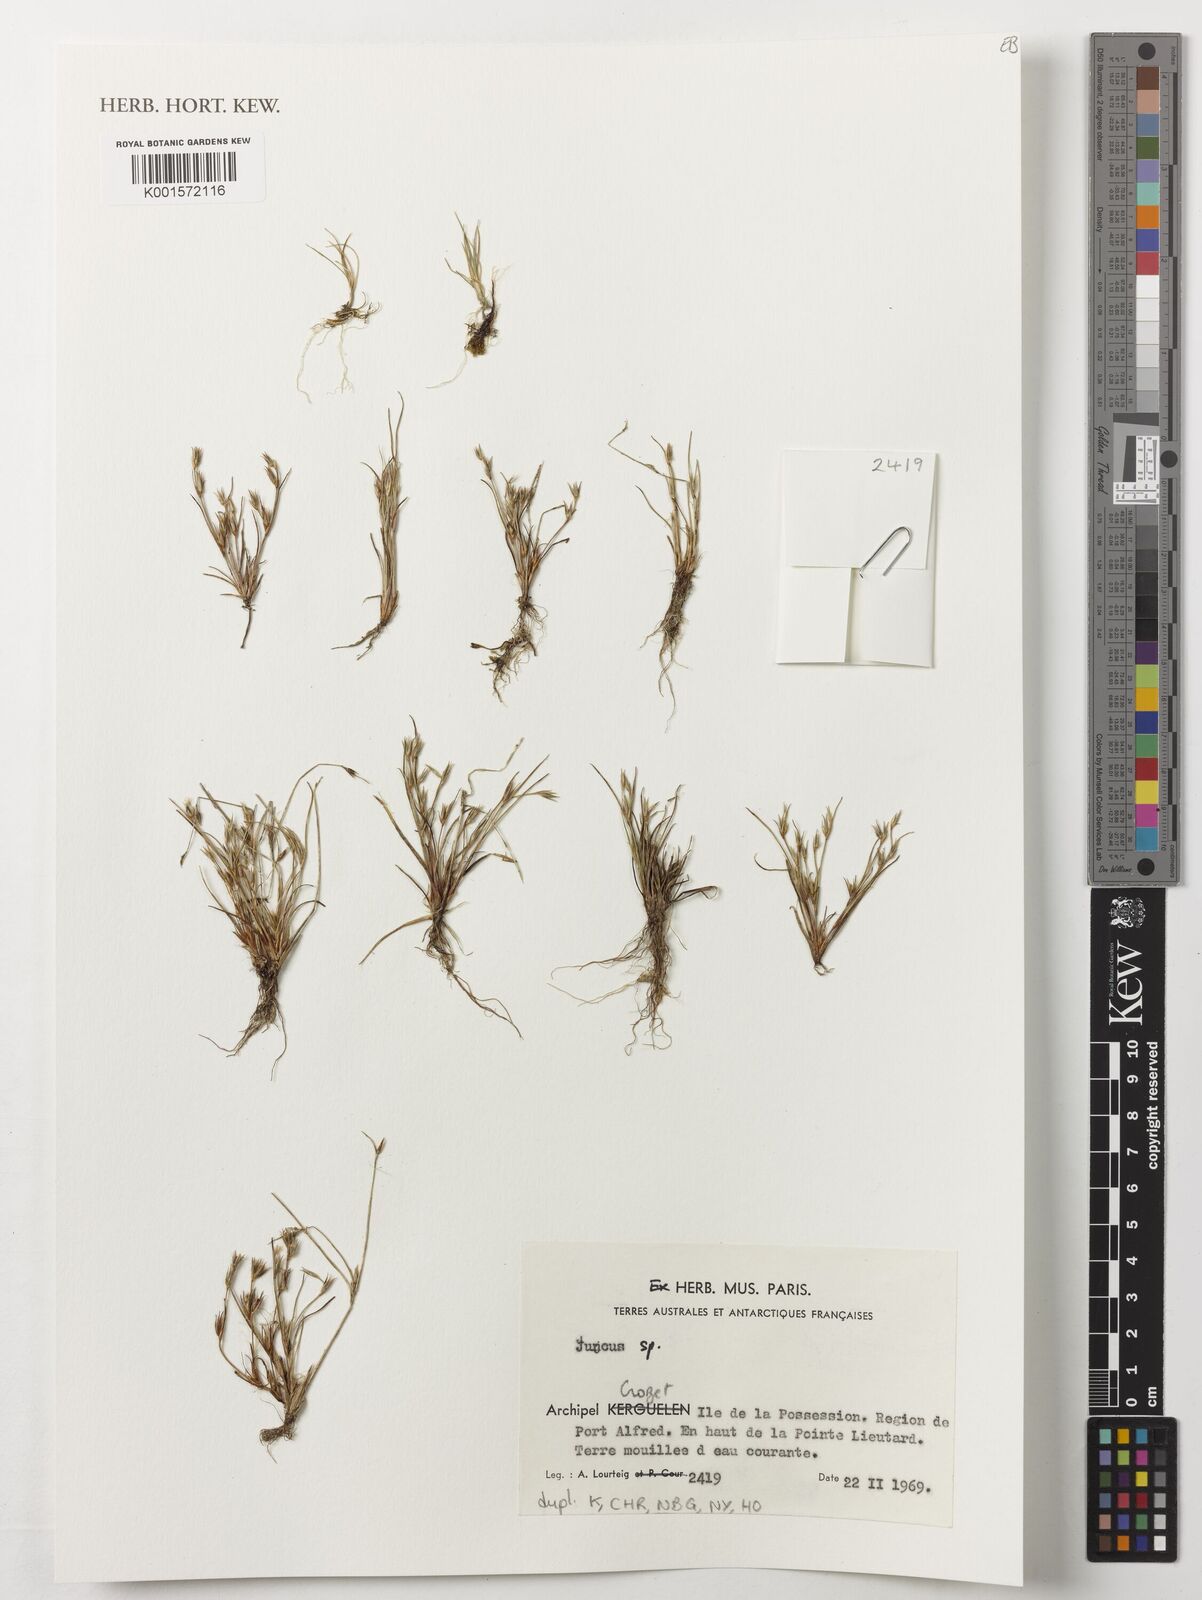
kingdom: Plantae
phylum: Tracheophyta
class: Liliopsida
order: Poales
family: Juncaceae
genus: Juncus
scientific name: Juncus
